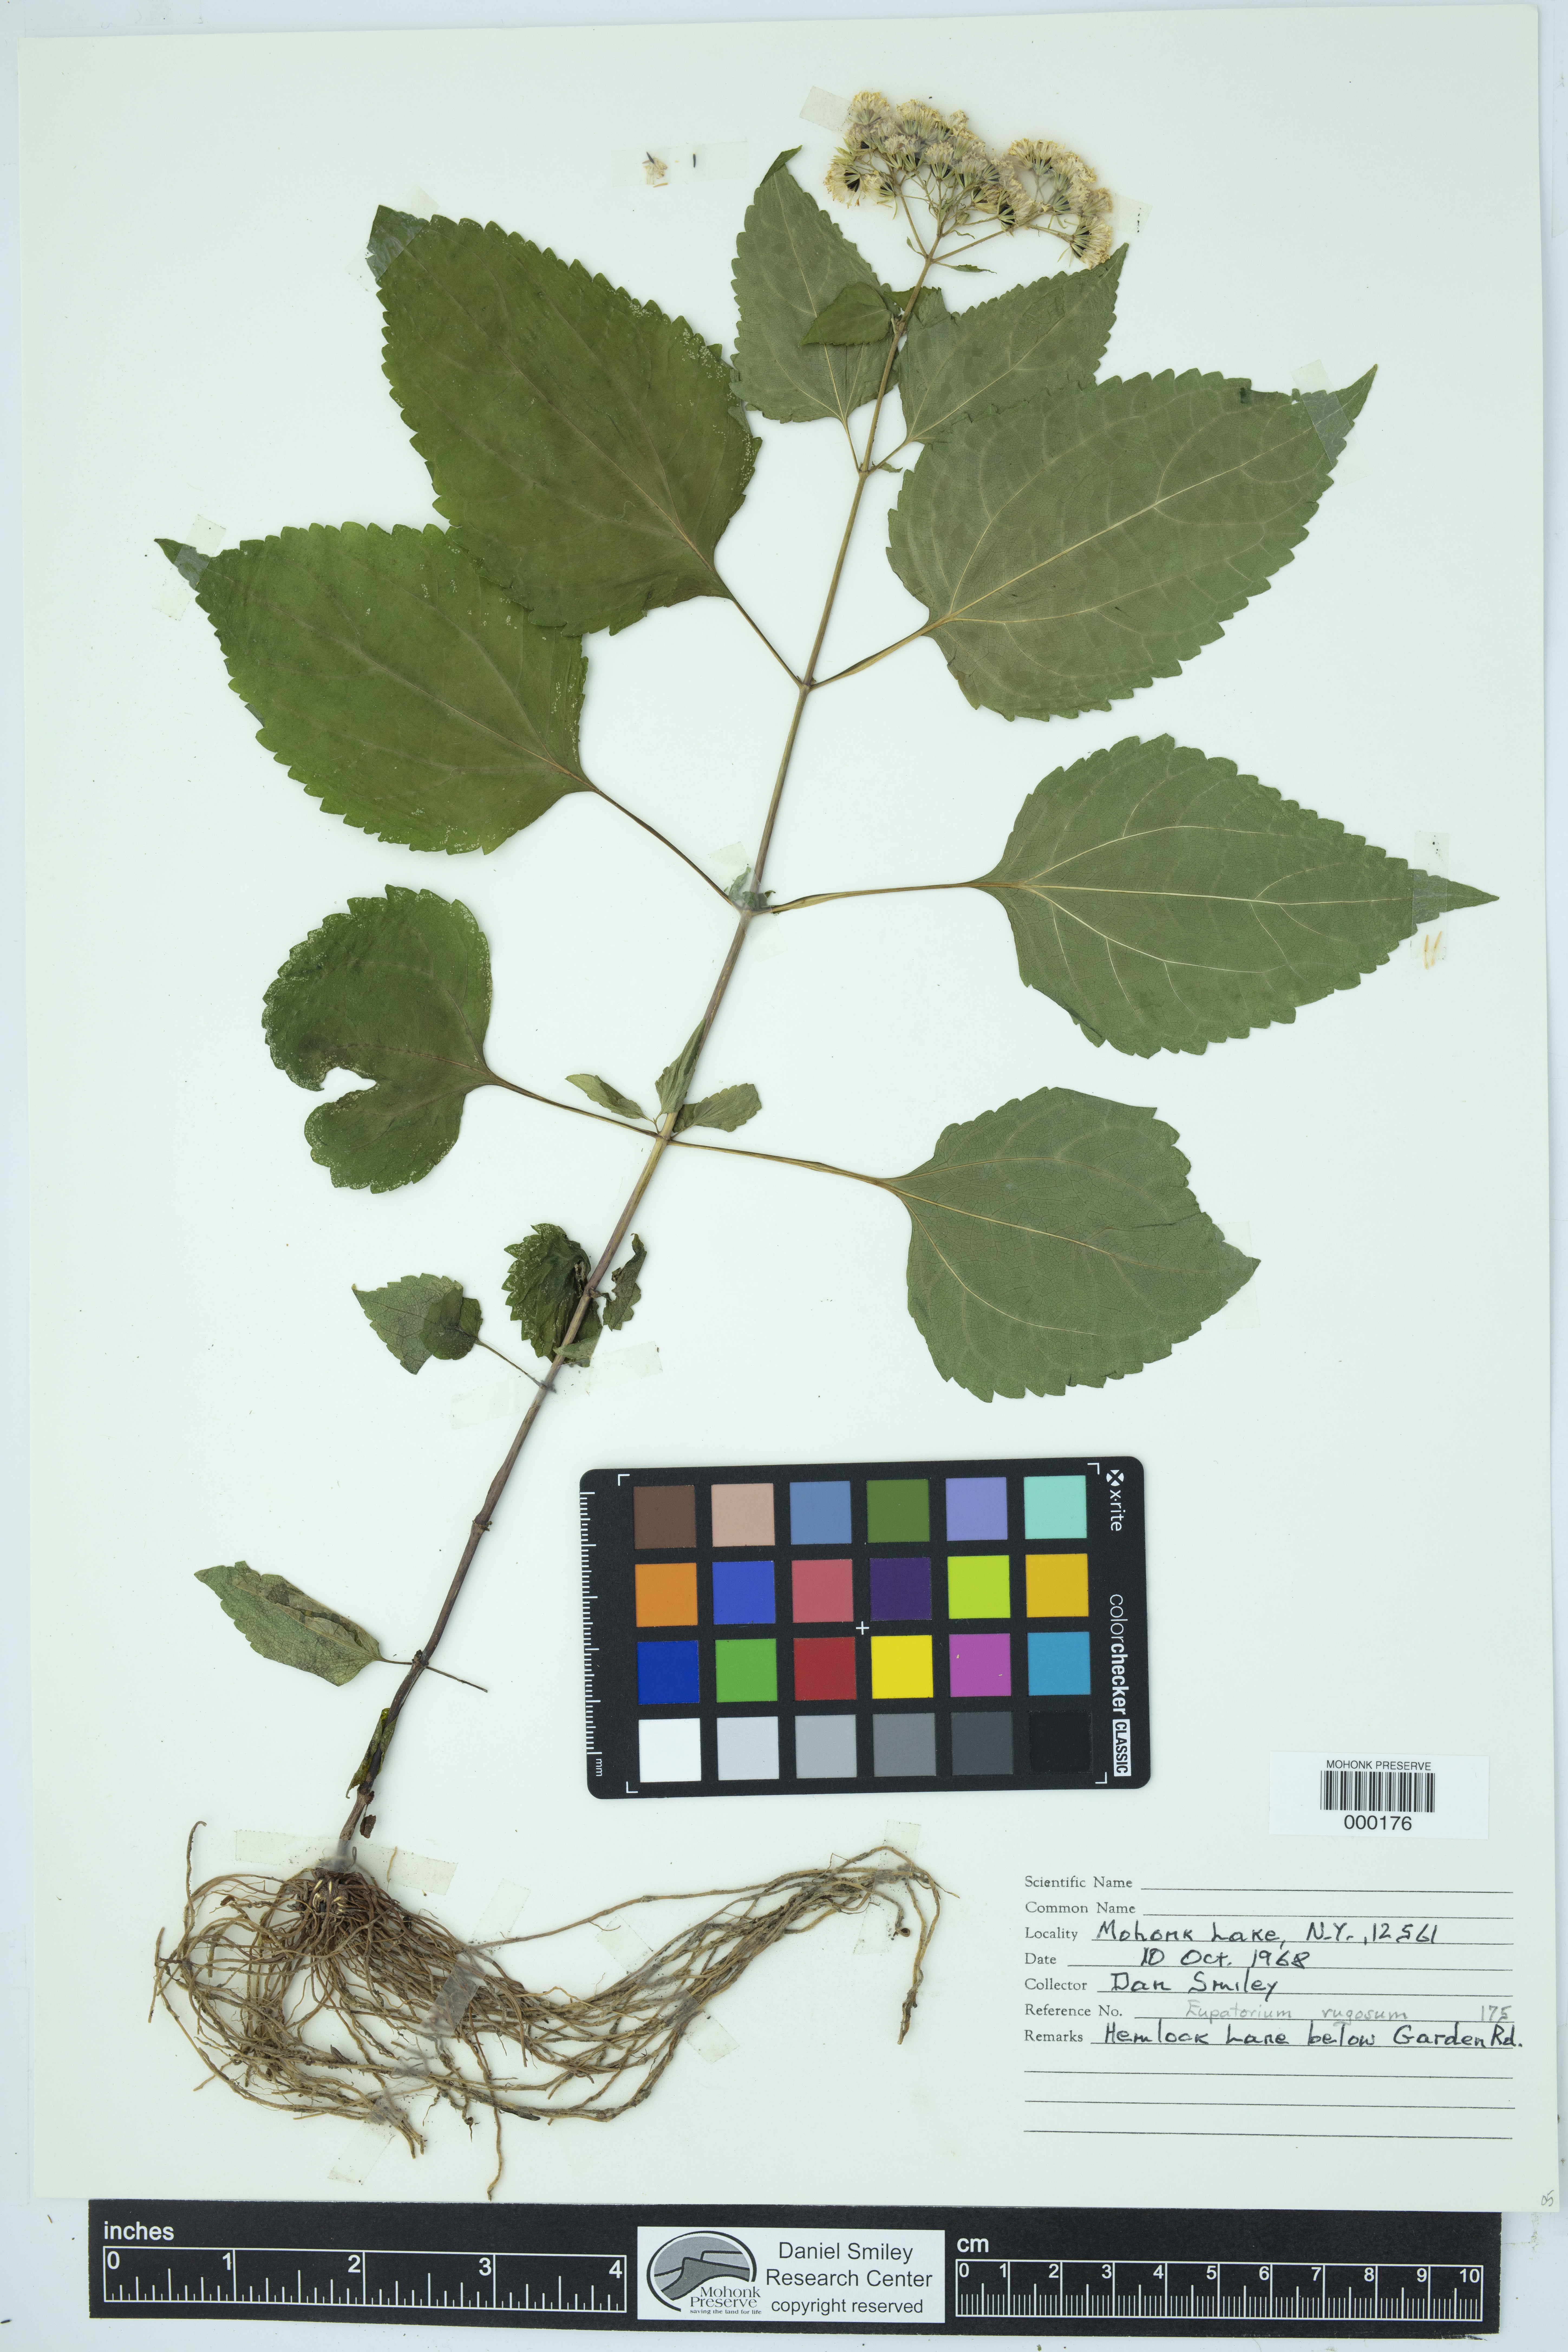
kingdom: Plantae
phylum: Tracheophyta
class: Magnoliopsida
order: Asterales
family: Asteraceae
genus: Ageratina
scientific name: Ageratina altissima
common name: White snakeroot
